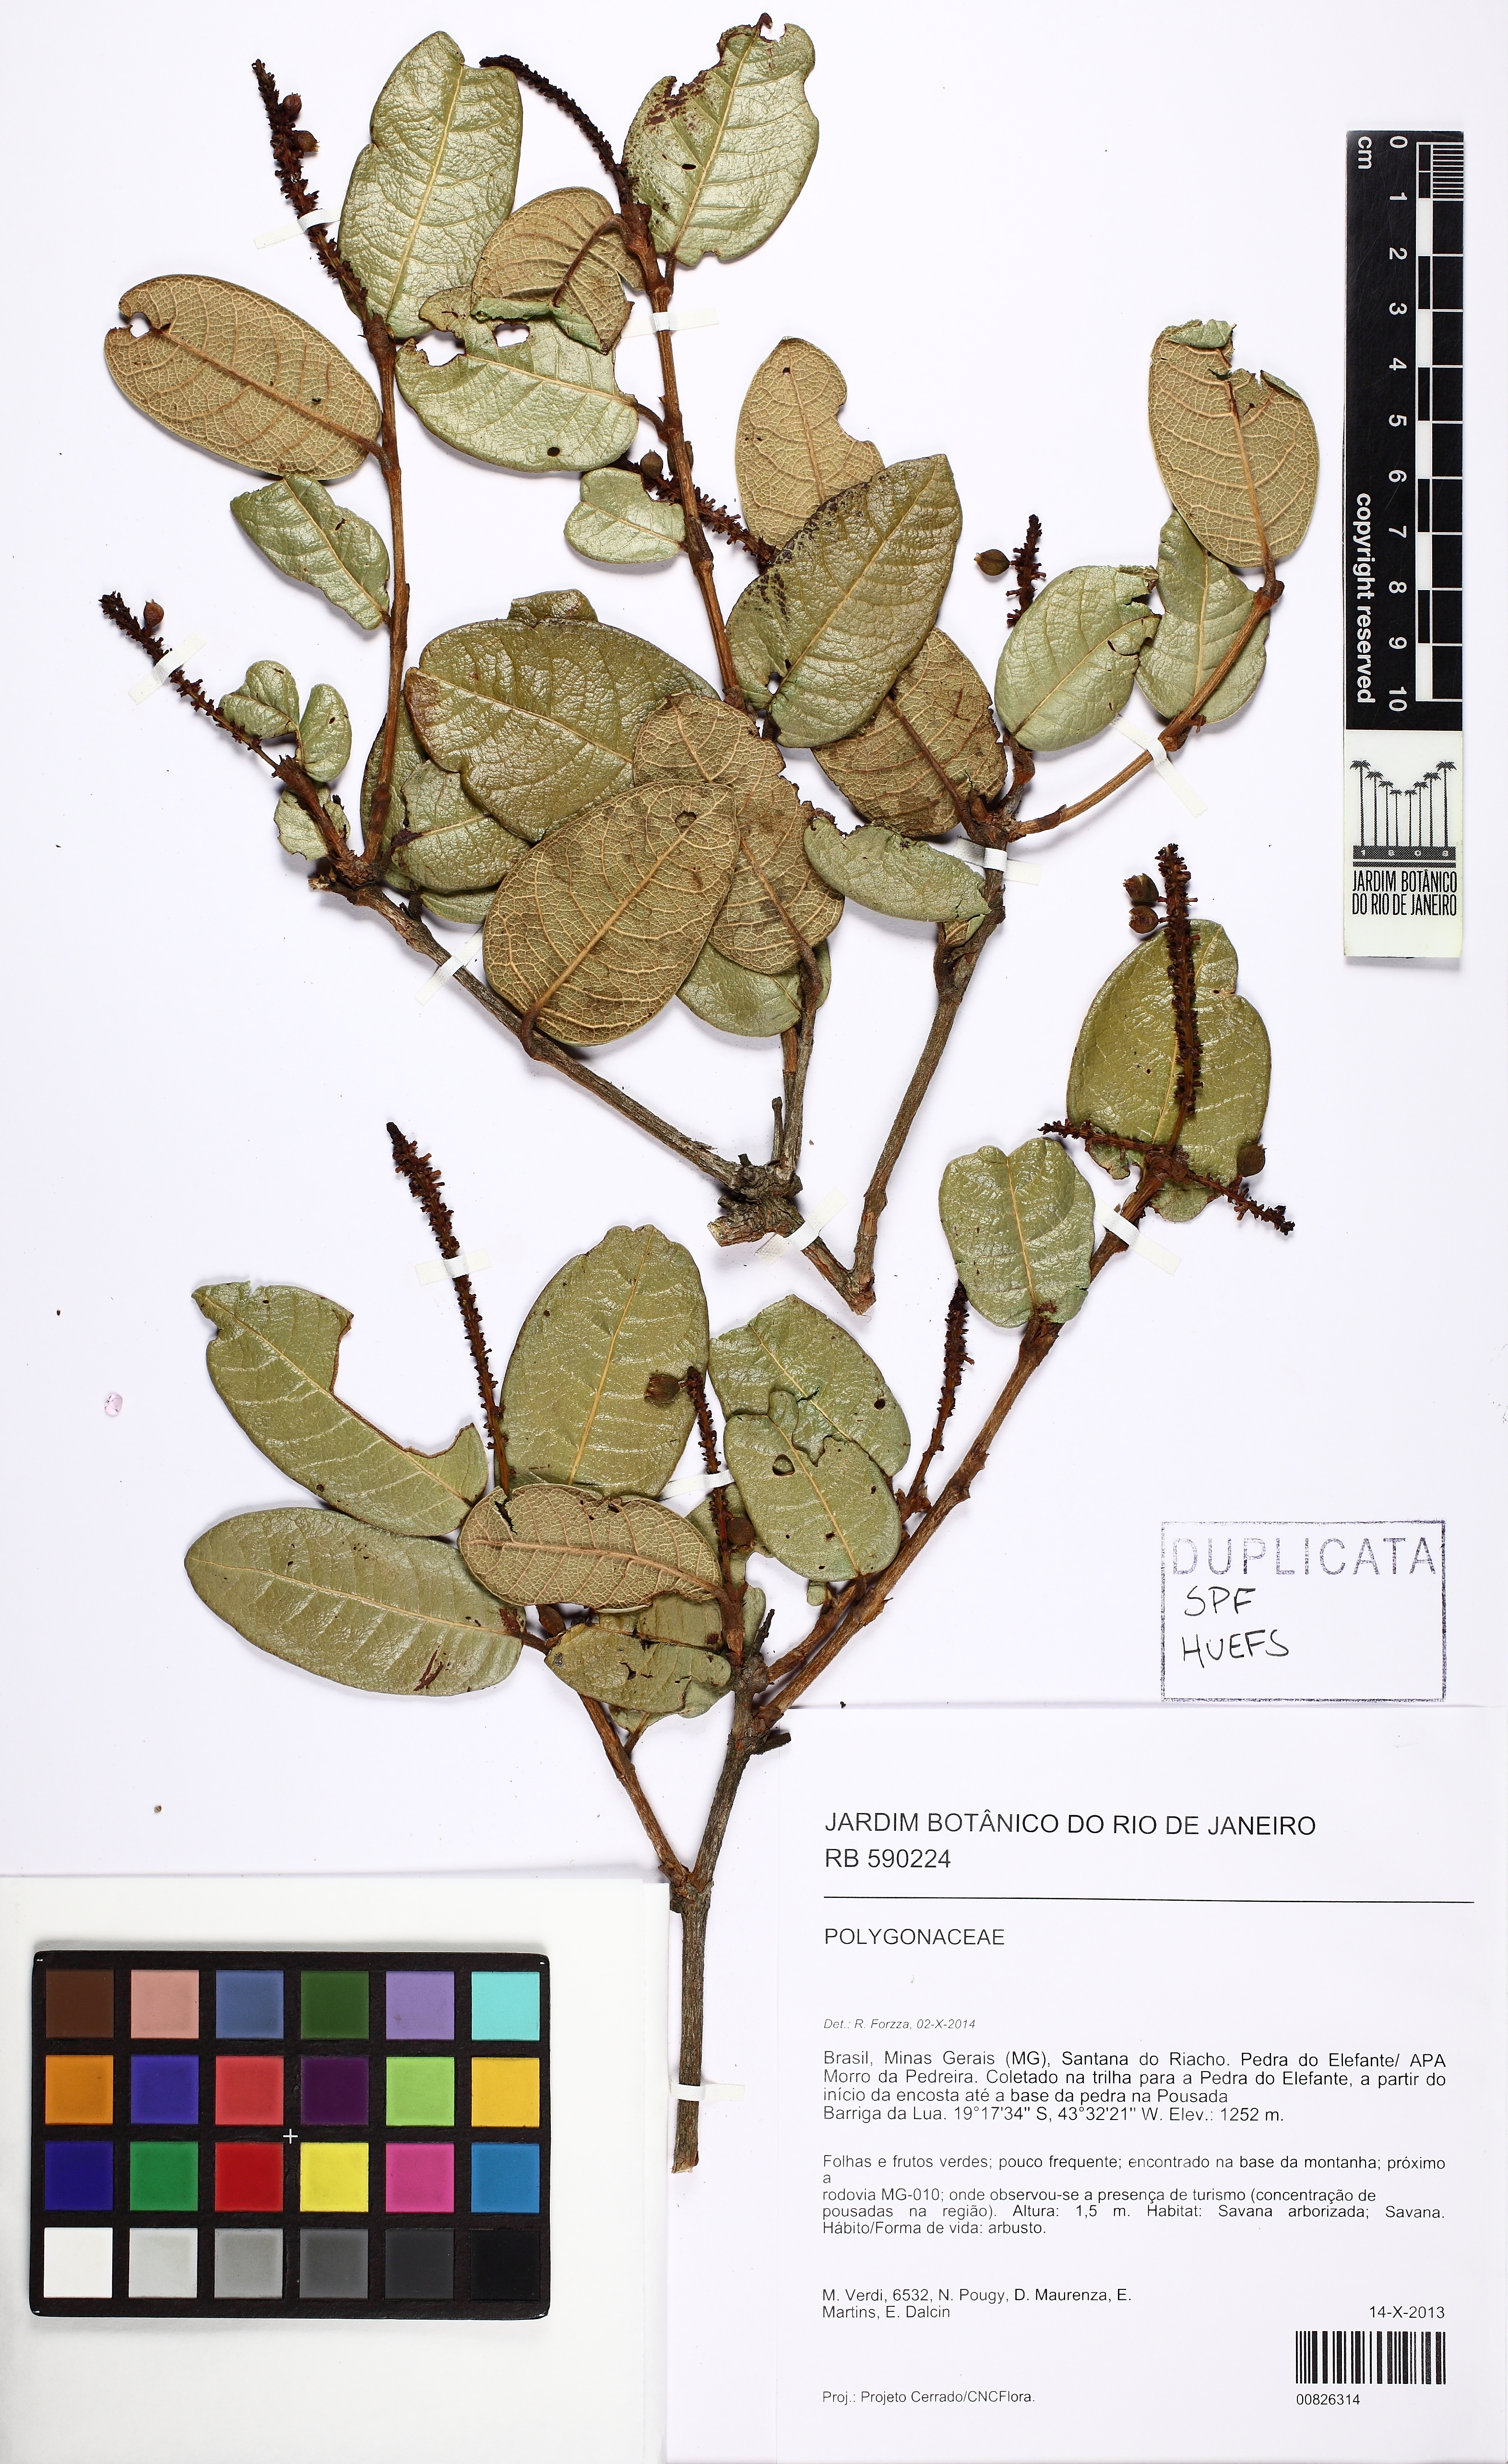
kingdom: Plantae
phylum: Tracheophyta
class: Magnoliopsida
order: Caryophyllales
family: Polygonaceae
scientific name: Polygonaceae
